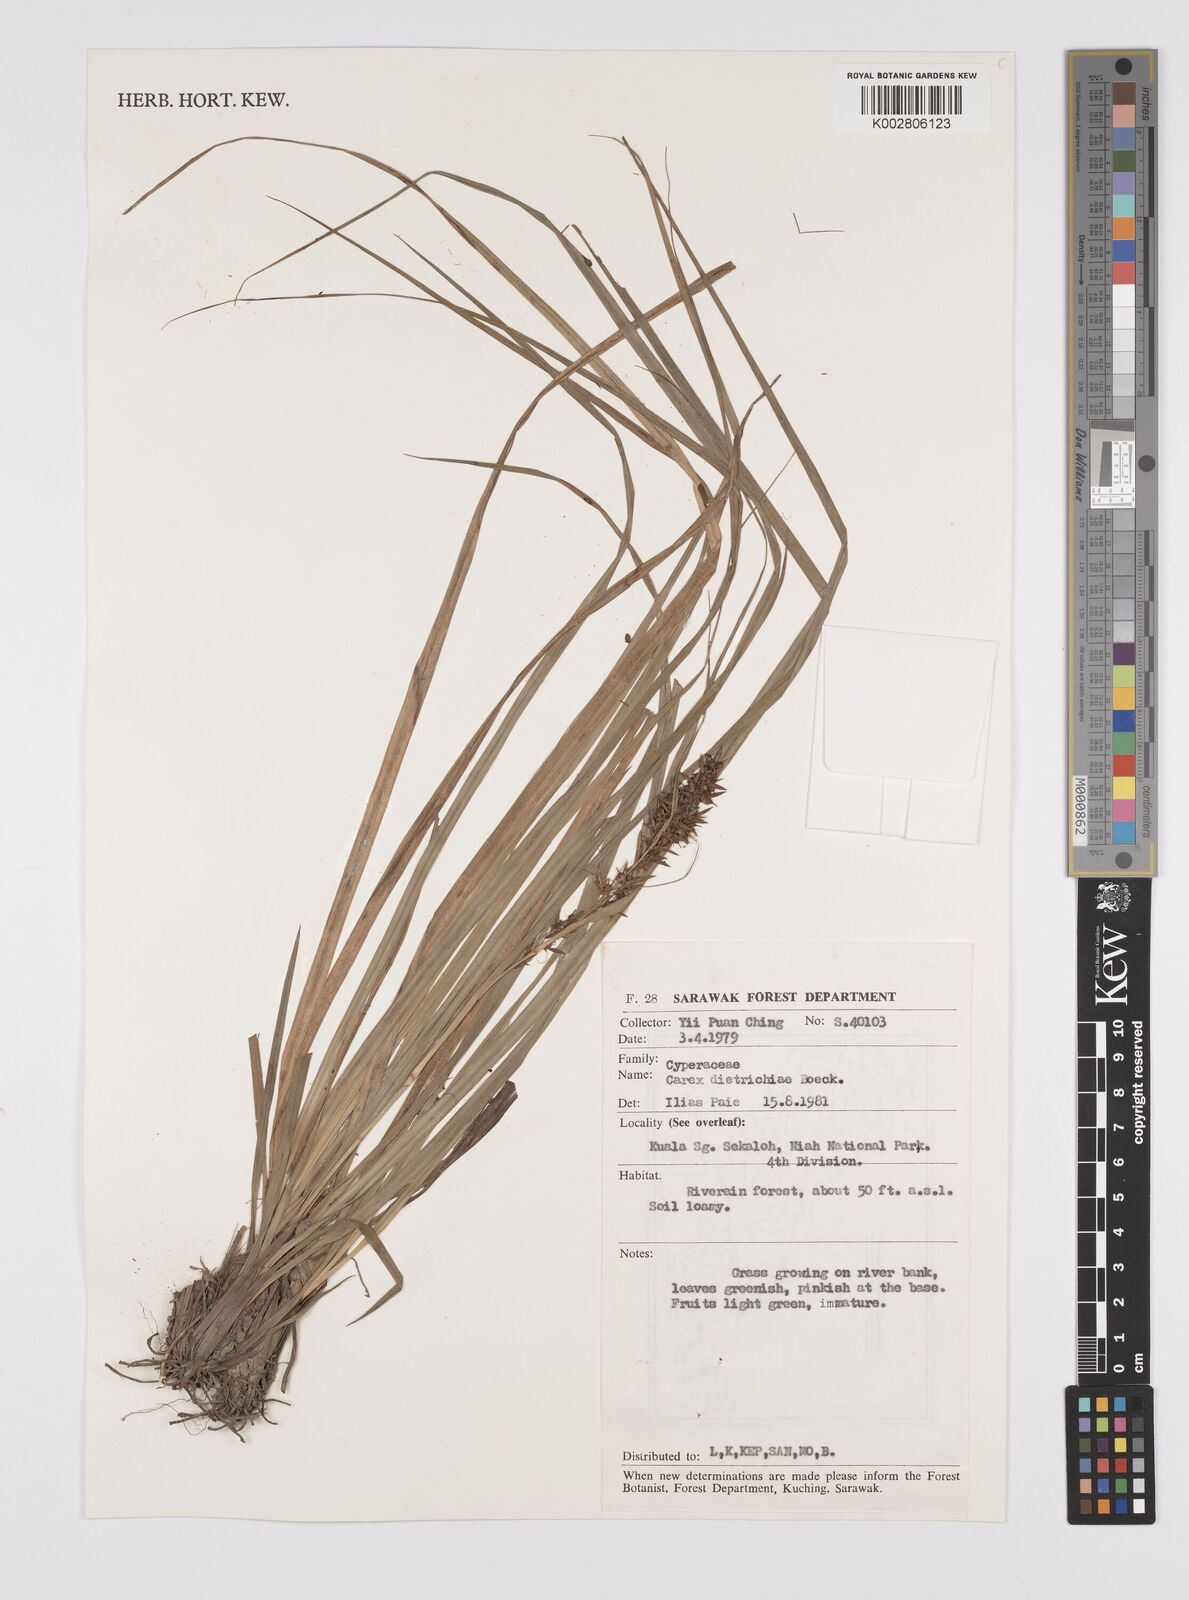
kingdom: Plantae
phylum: Tracheophyta
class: Liliopsida
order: Poales
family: Cyperaceae
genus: Carex
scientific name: Carex indica
